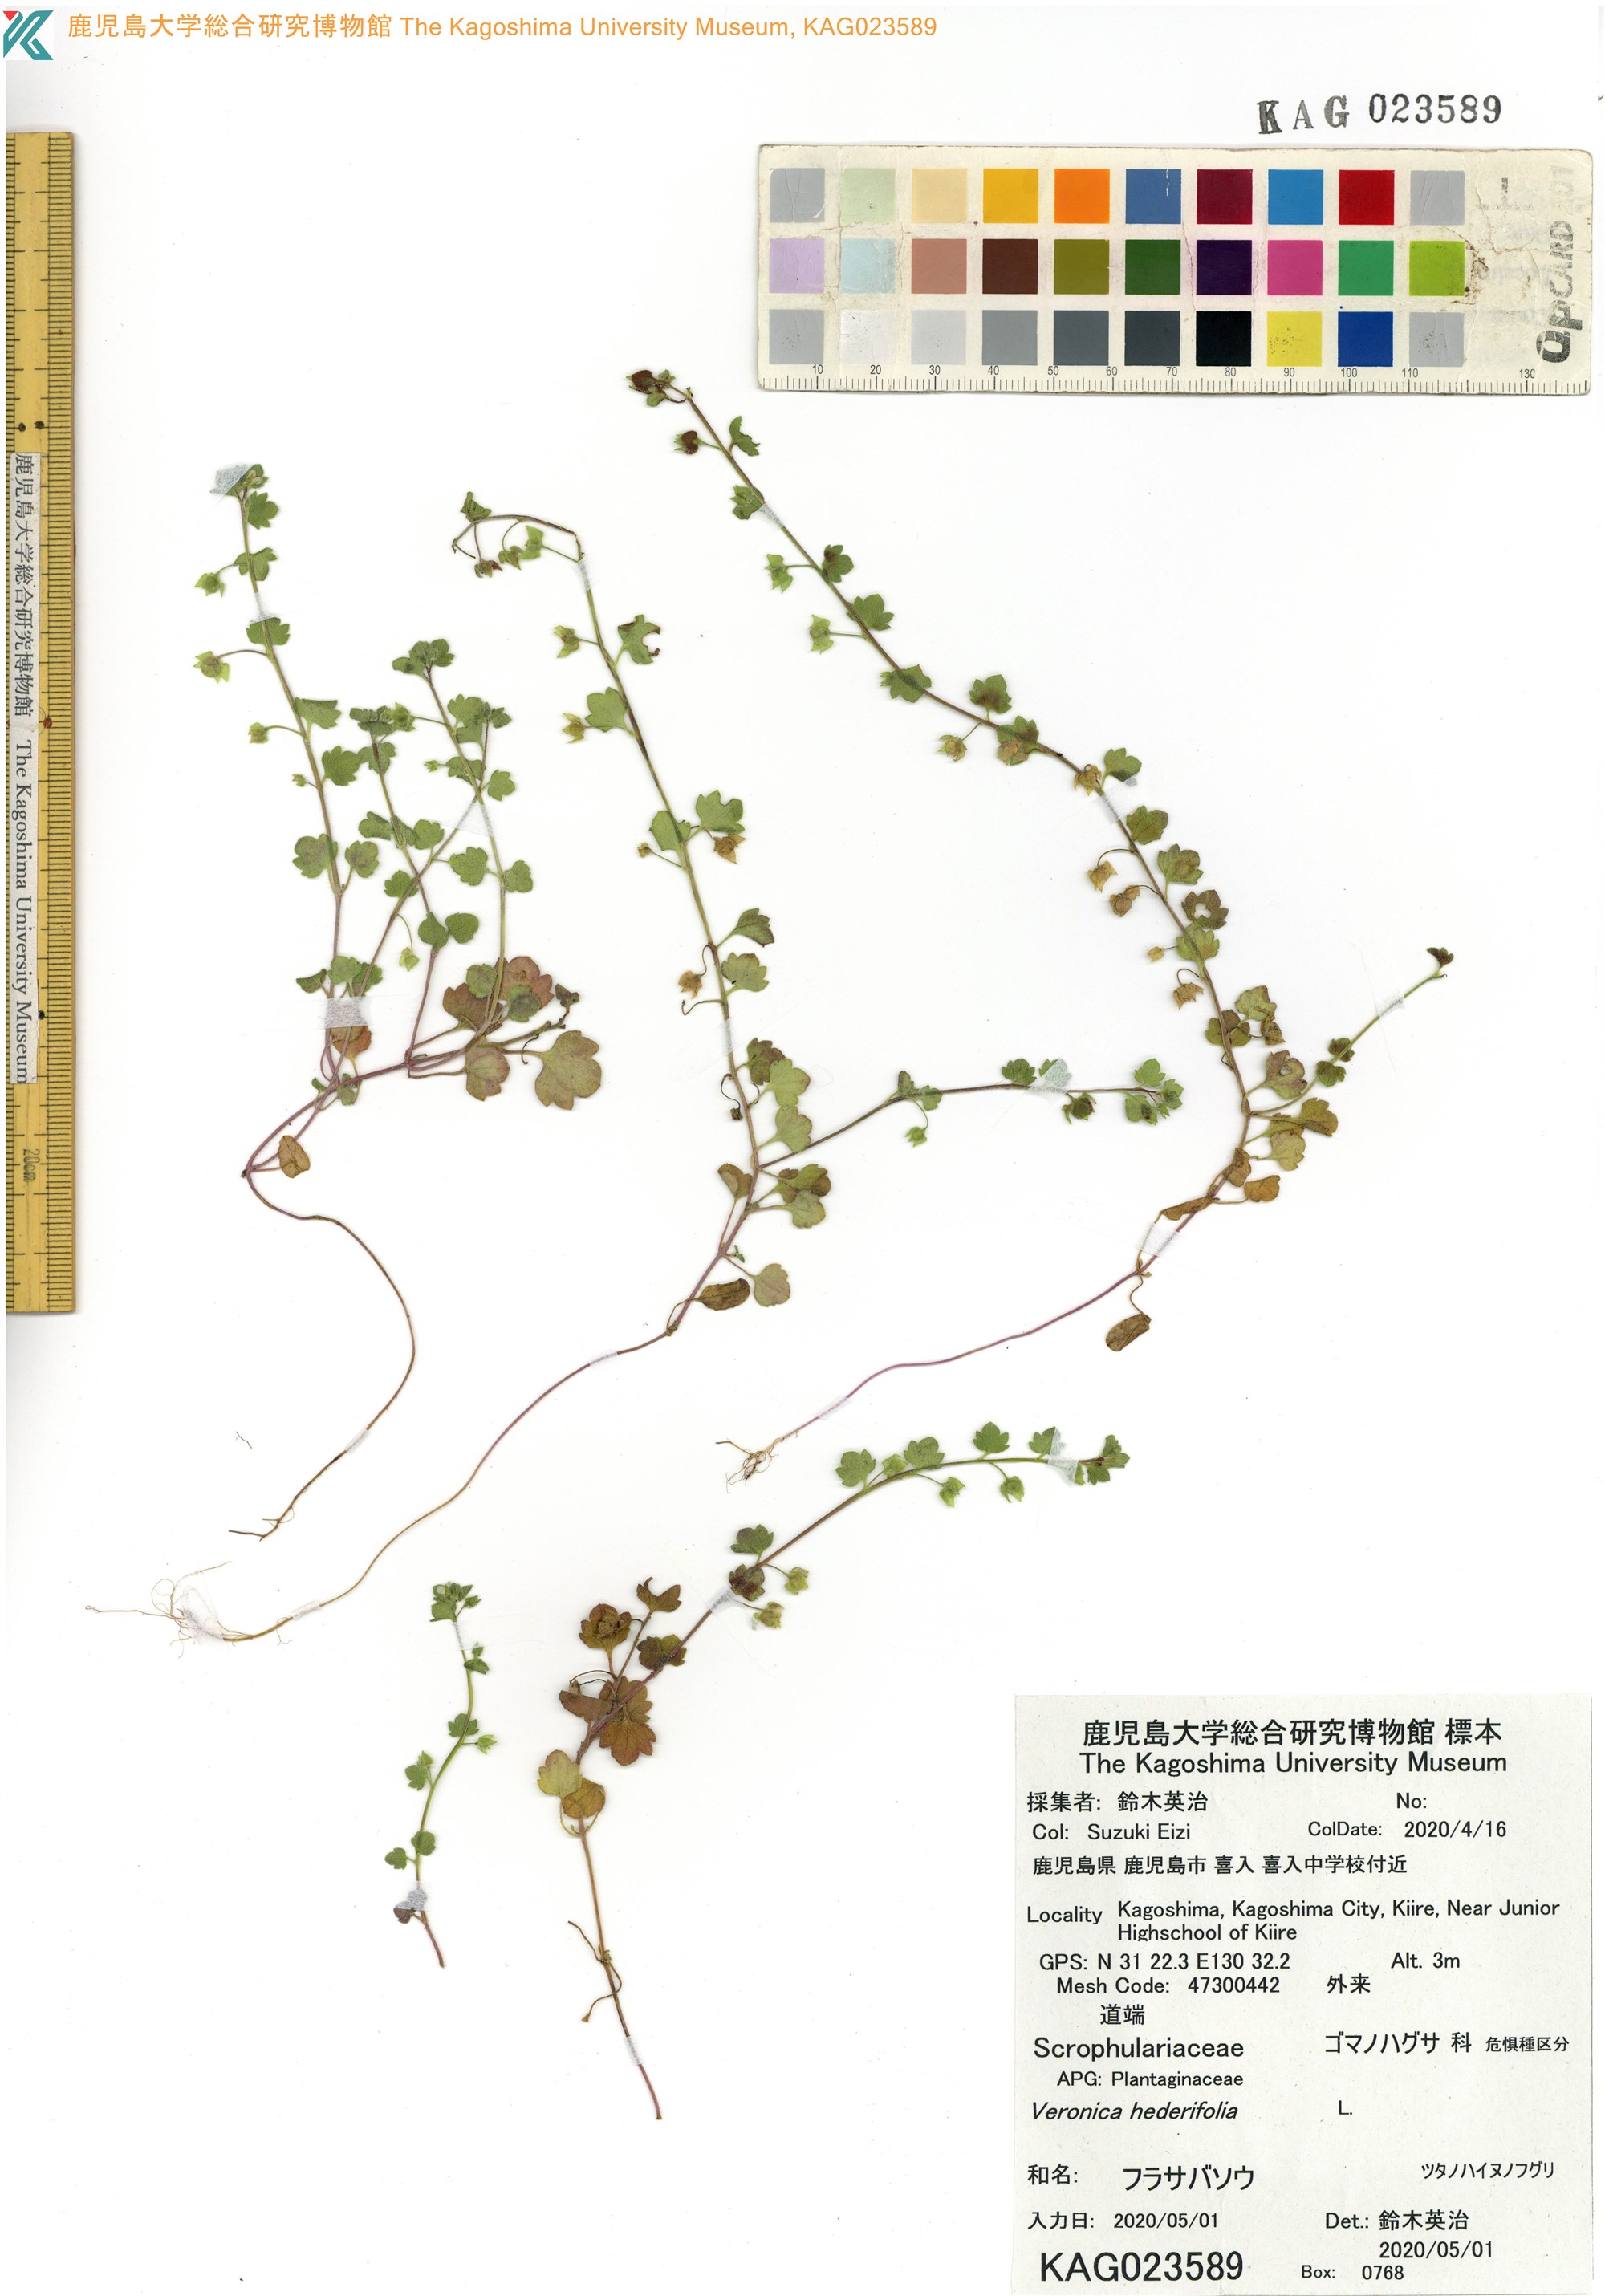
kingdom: Plantae
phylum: Tracheophyta
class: Magnoliopsida
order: Lamiales
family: Plantaginaceae
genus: Veronica
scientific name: Veronica hederifolia
